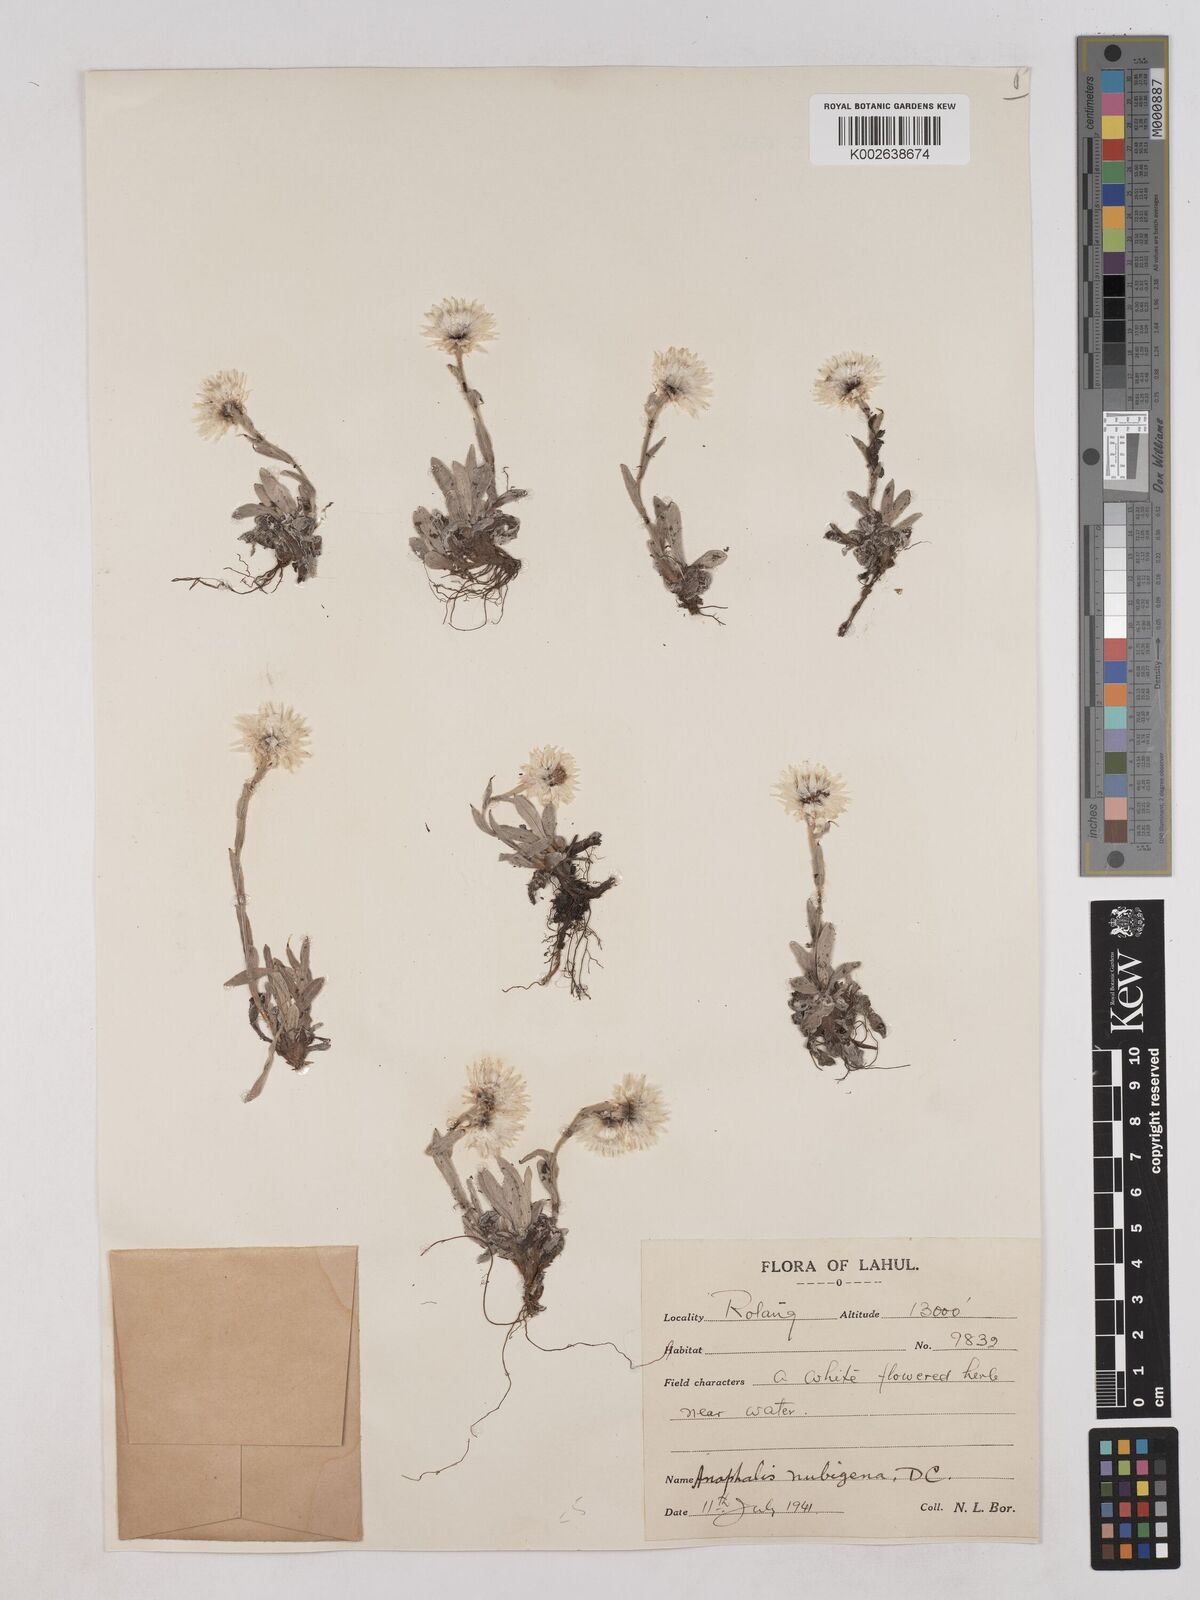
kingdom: Plantae
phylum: Tracheophyta
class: Magnoliopsida
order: Asterales
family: Asteraceae
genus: Anaphalis
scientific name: Anaphalis nepalensis
